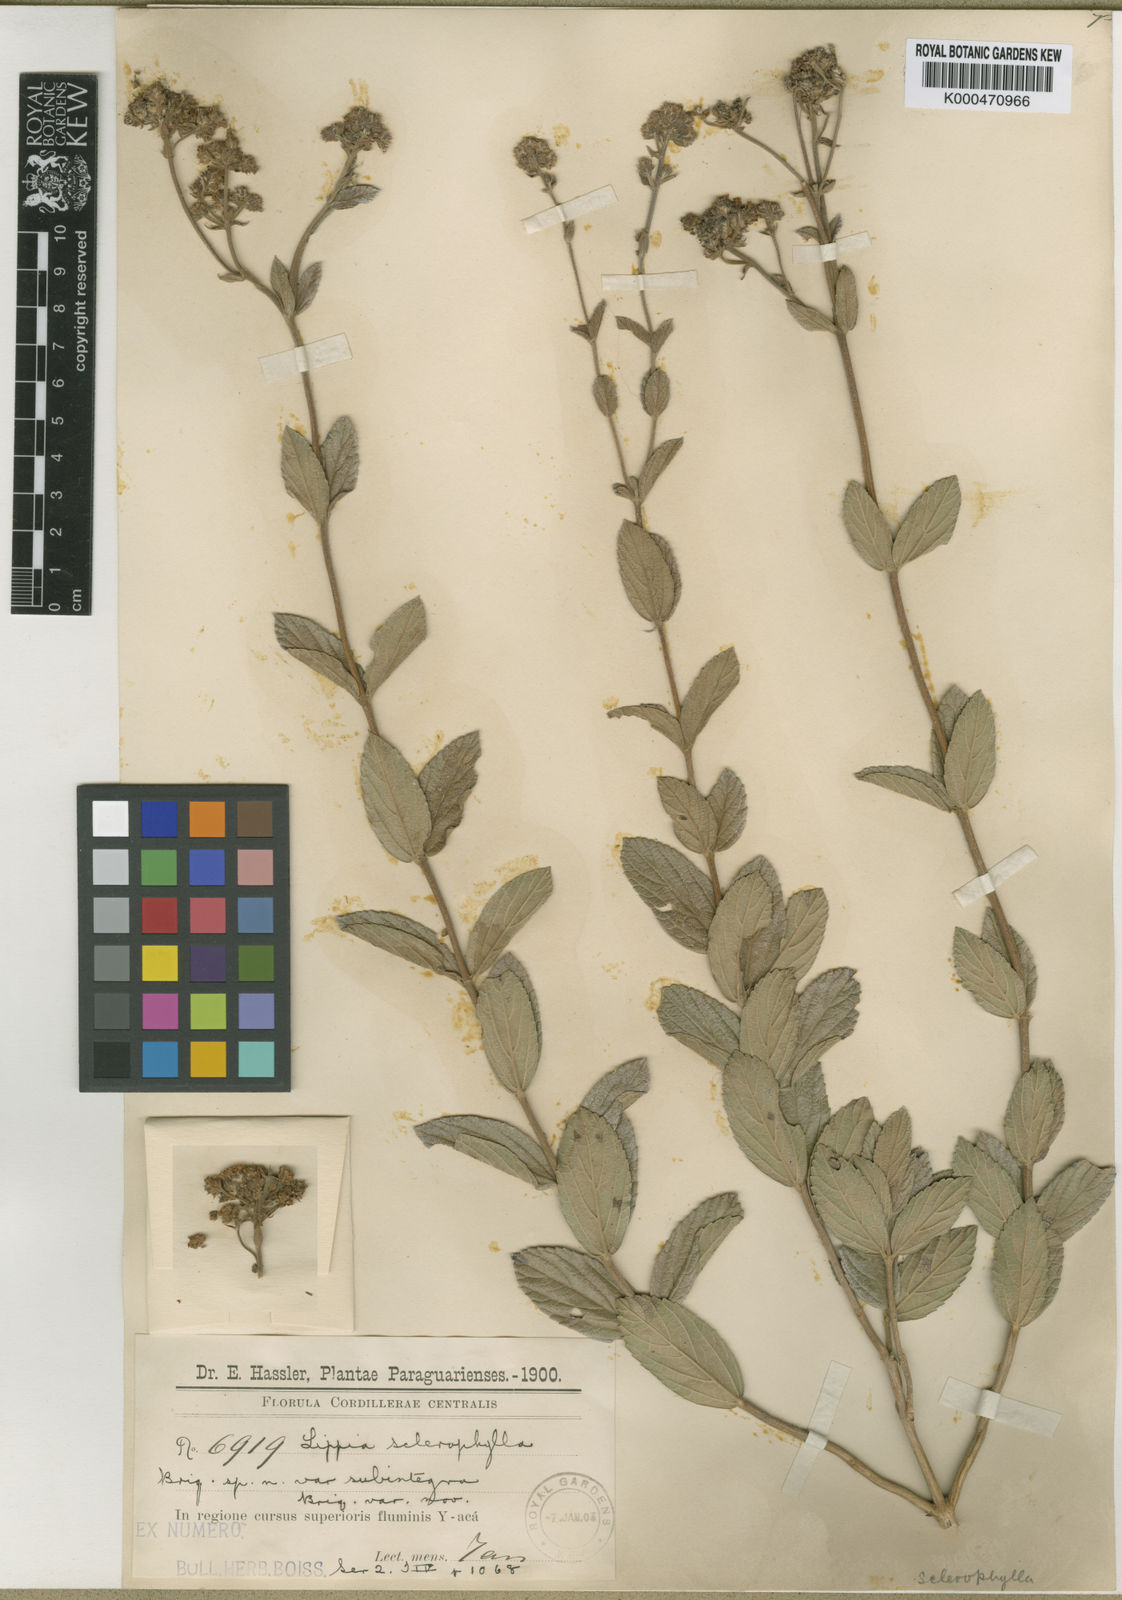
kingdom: Plantae
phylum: Tracheophyta
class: Magnoliopsida
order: Lamiales
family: Verbenaceae
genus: Lippia
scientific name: Lippia sclerophylla
